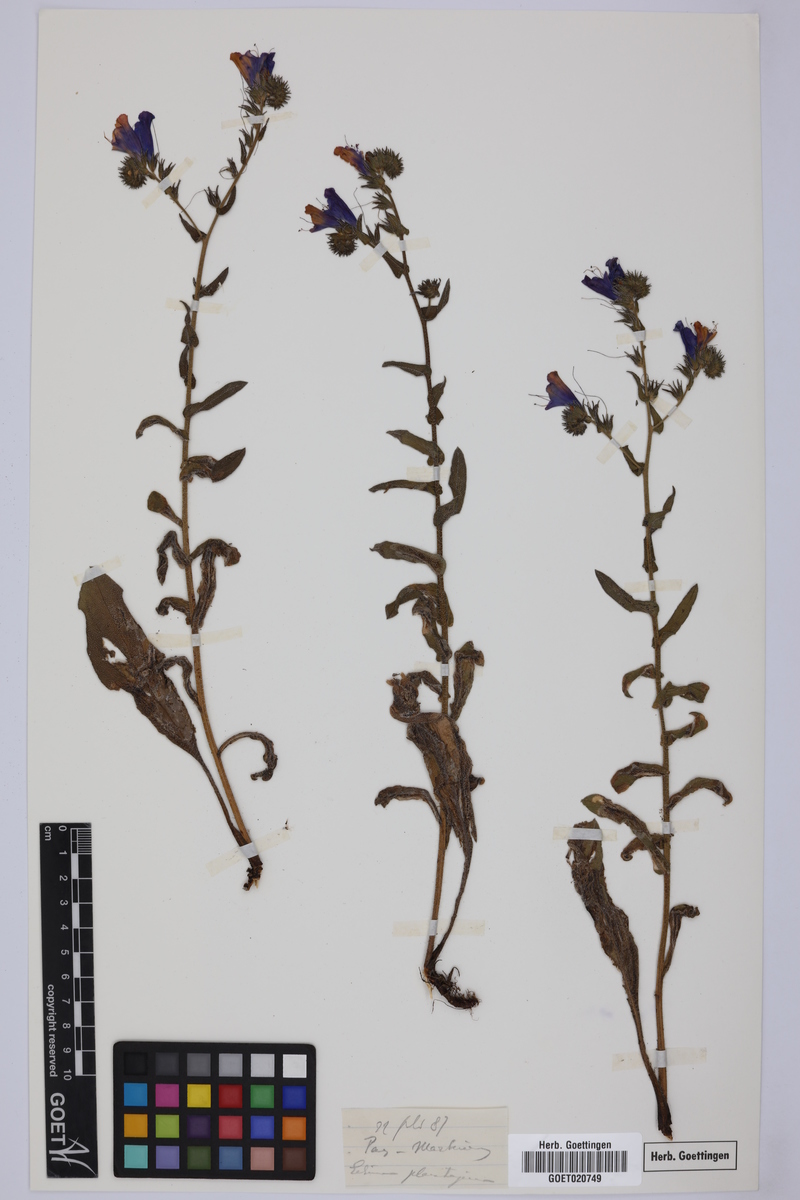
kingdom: Plantae
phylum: Tracheophyta
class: Magnoliopsida
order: Boraginales
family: Boraginaceae
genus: Echium
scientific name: Echium plantagineum
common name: Purple viper's-bugloss
